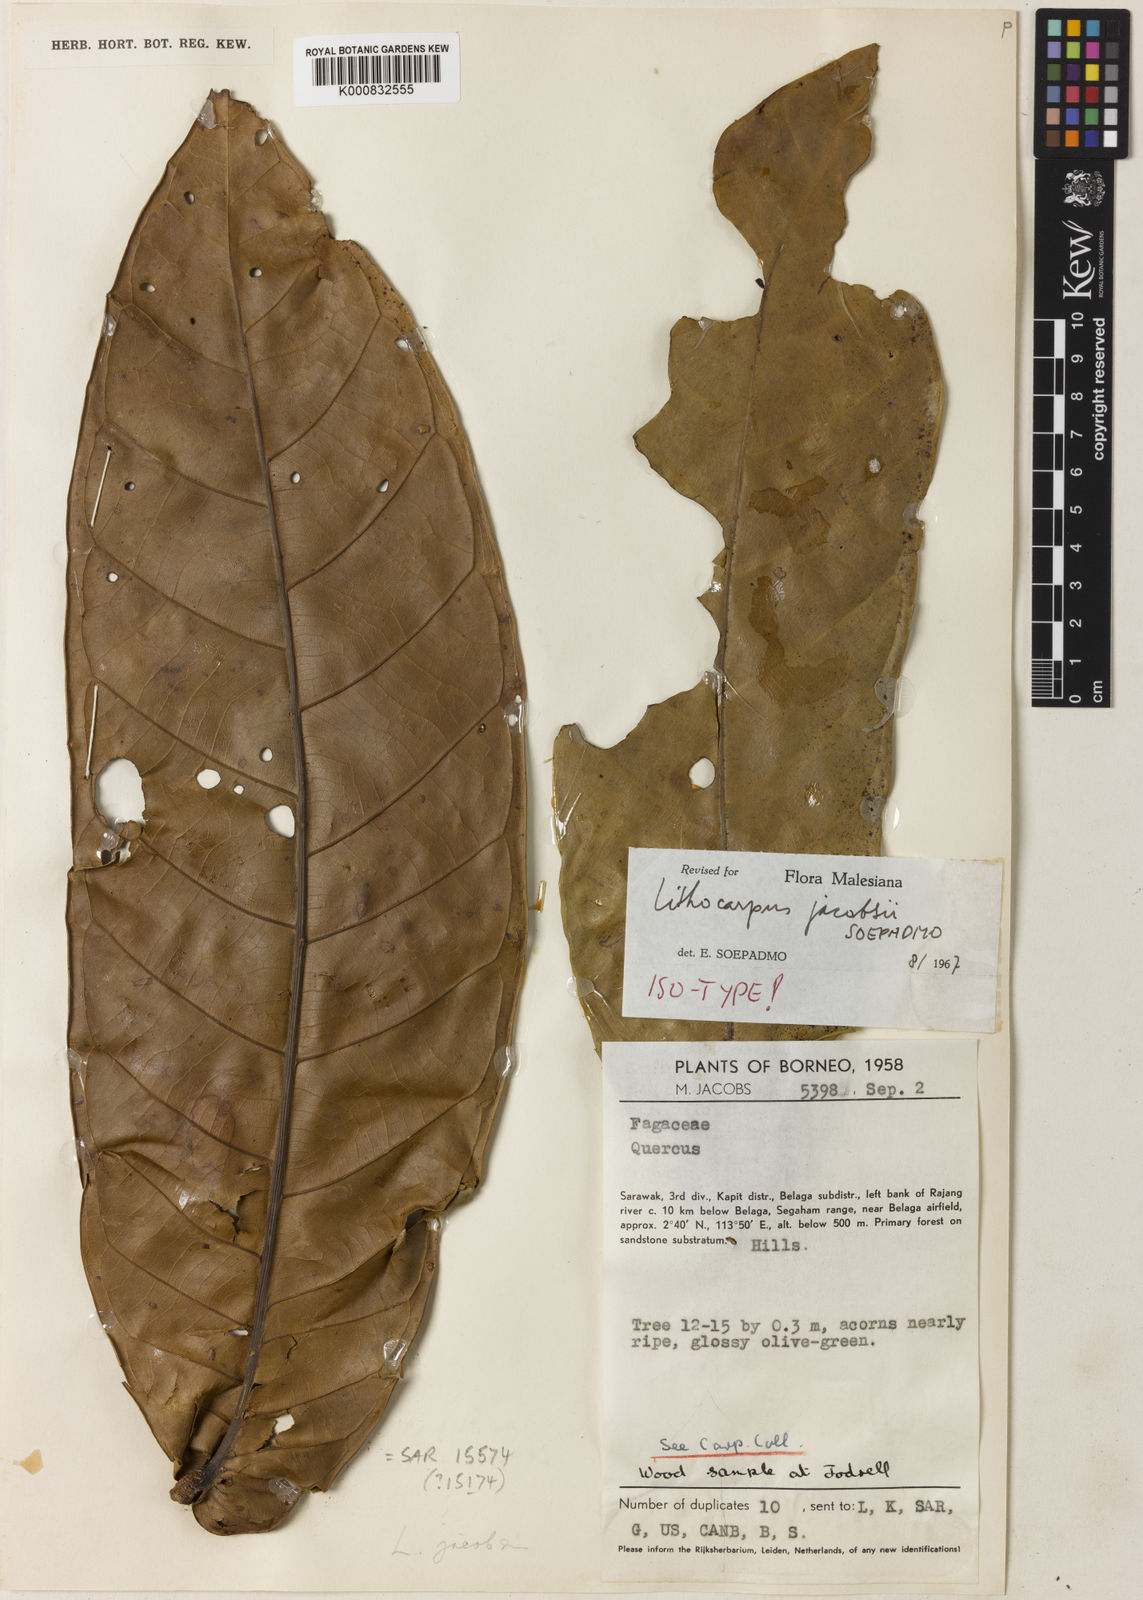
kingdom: Plantae
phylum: Tracheophyta
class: Magnoliopsida
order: Fagales
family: Fagaceae
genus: Lithocarpus
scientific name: Lithocarpus jacobsii
